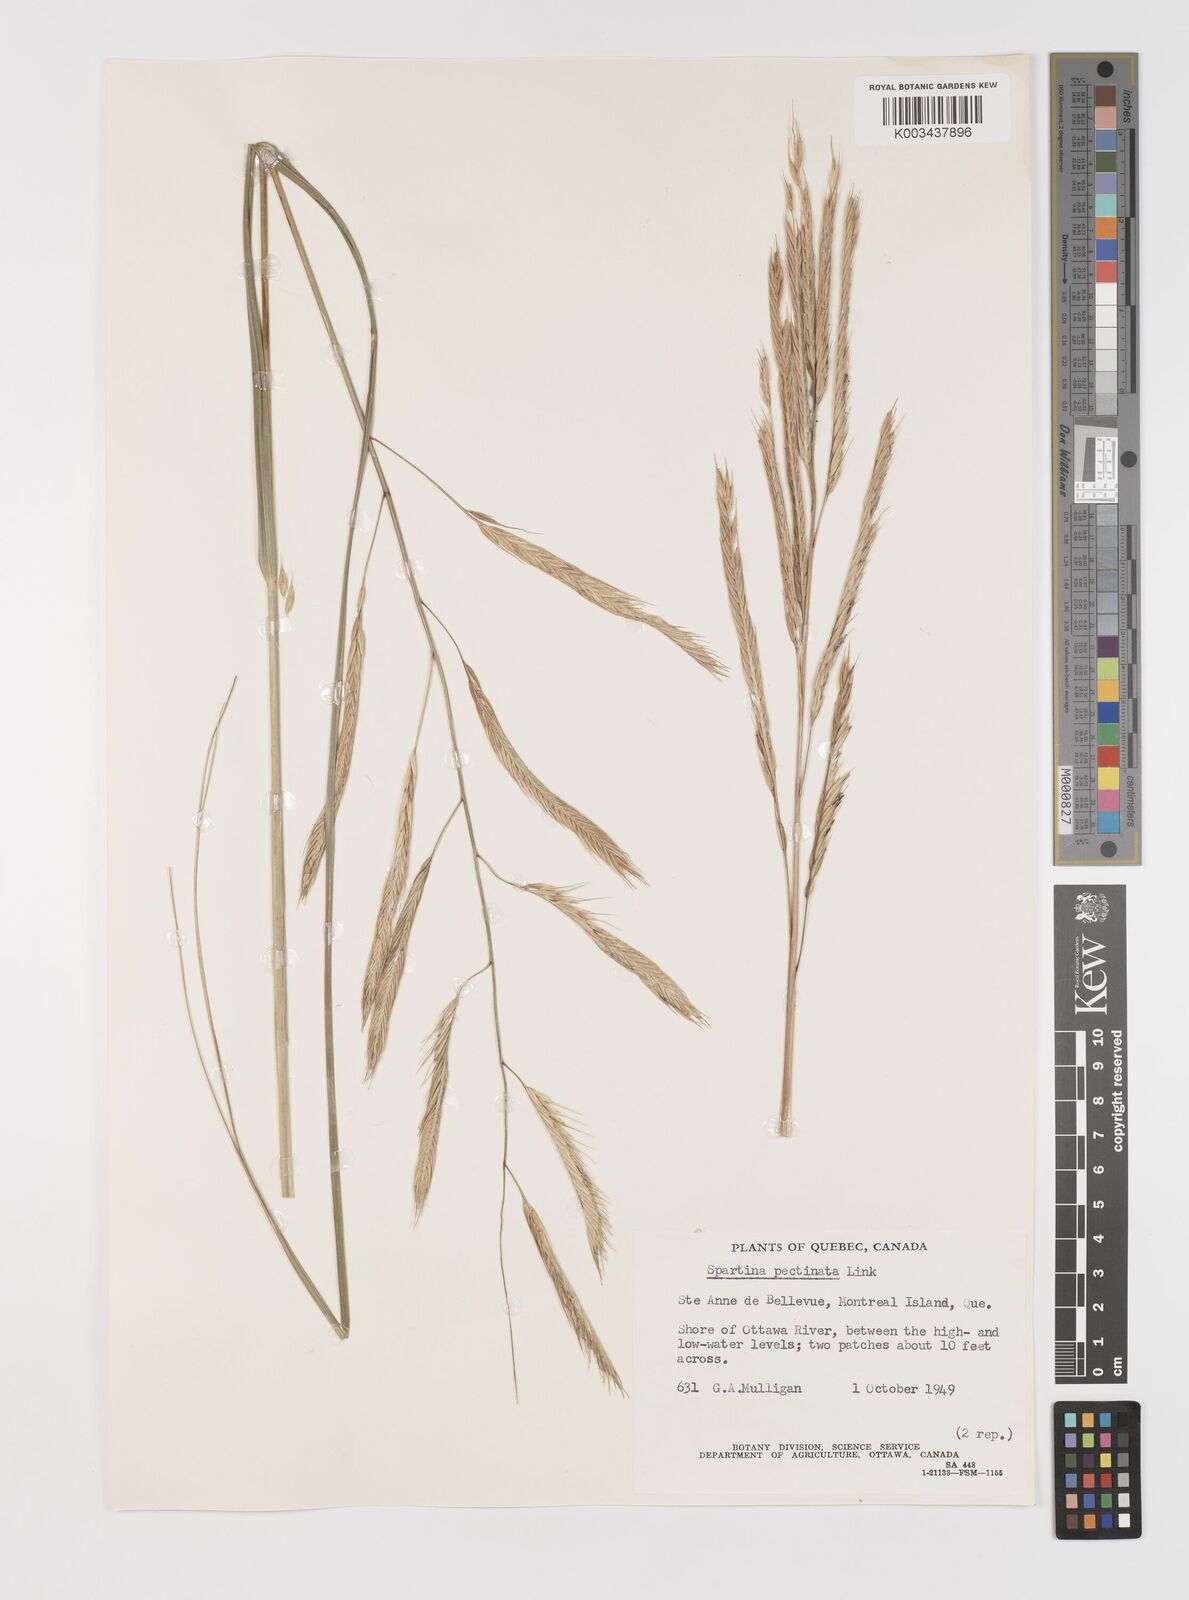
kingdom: Plantae
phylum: Tracheophyta
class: Liliopsida
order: Poales
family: Poaceae
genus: Sporobolus
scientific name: Sporobolus michauxianus
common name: Freshwater cordgrass
